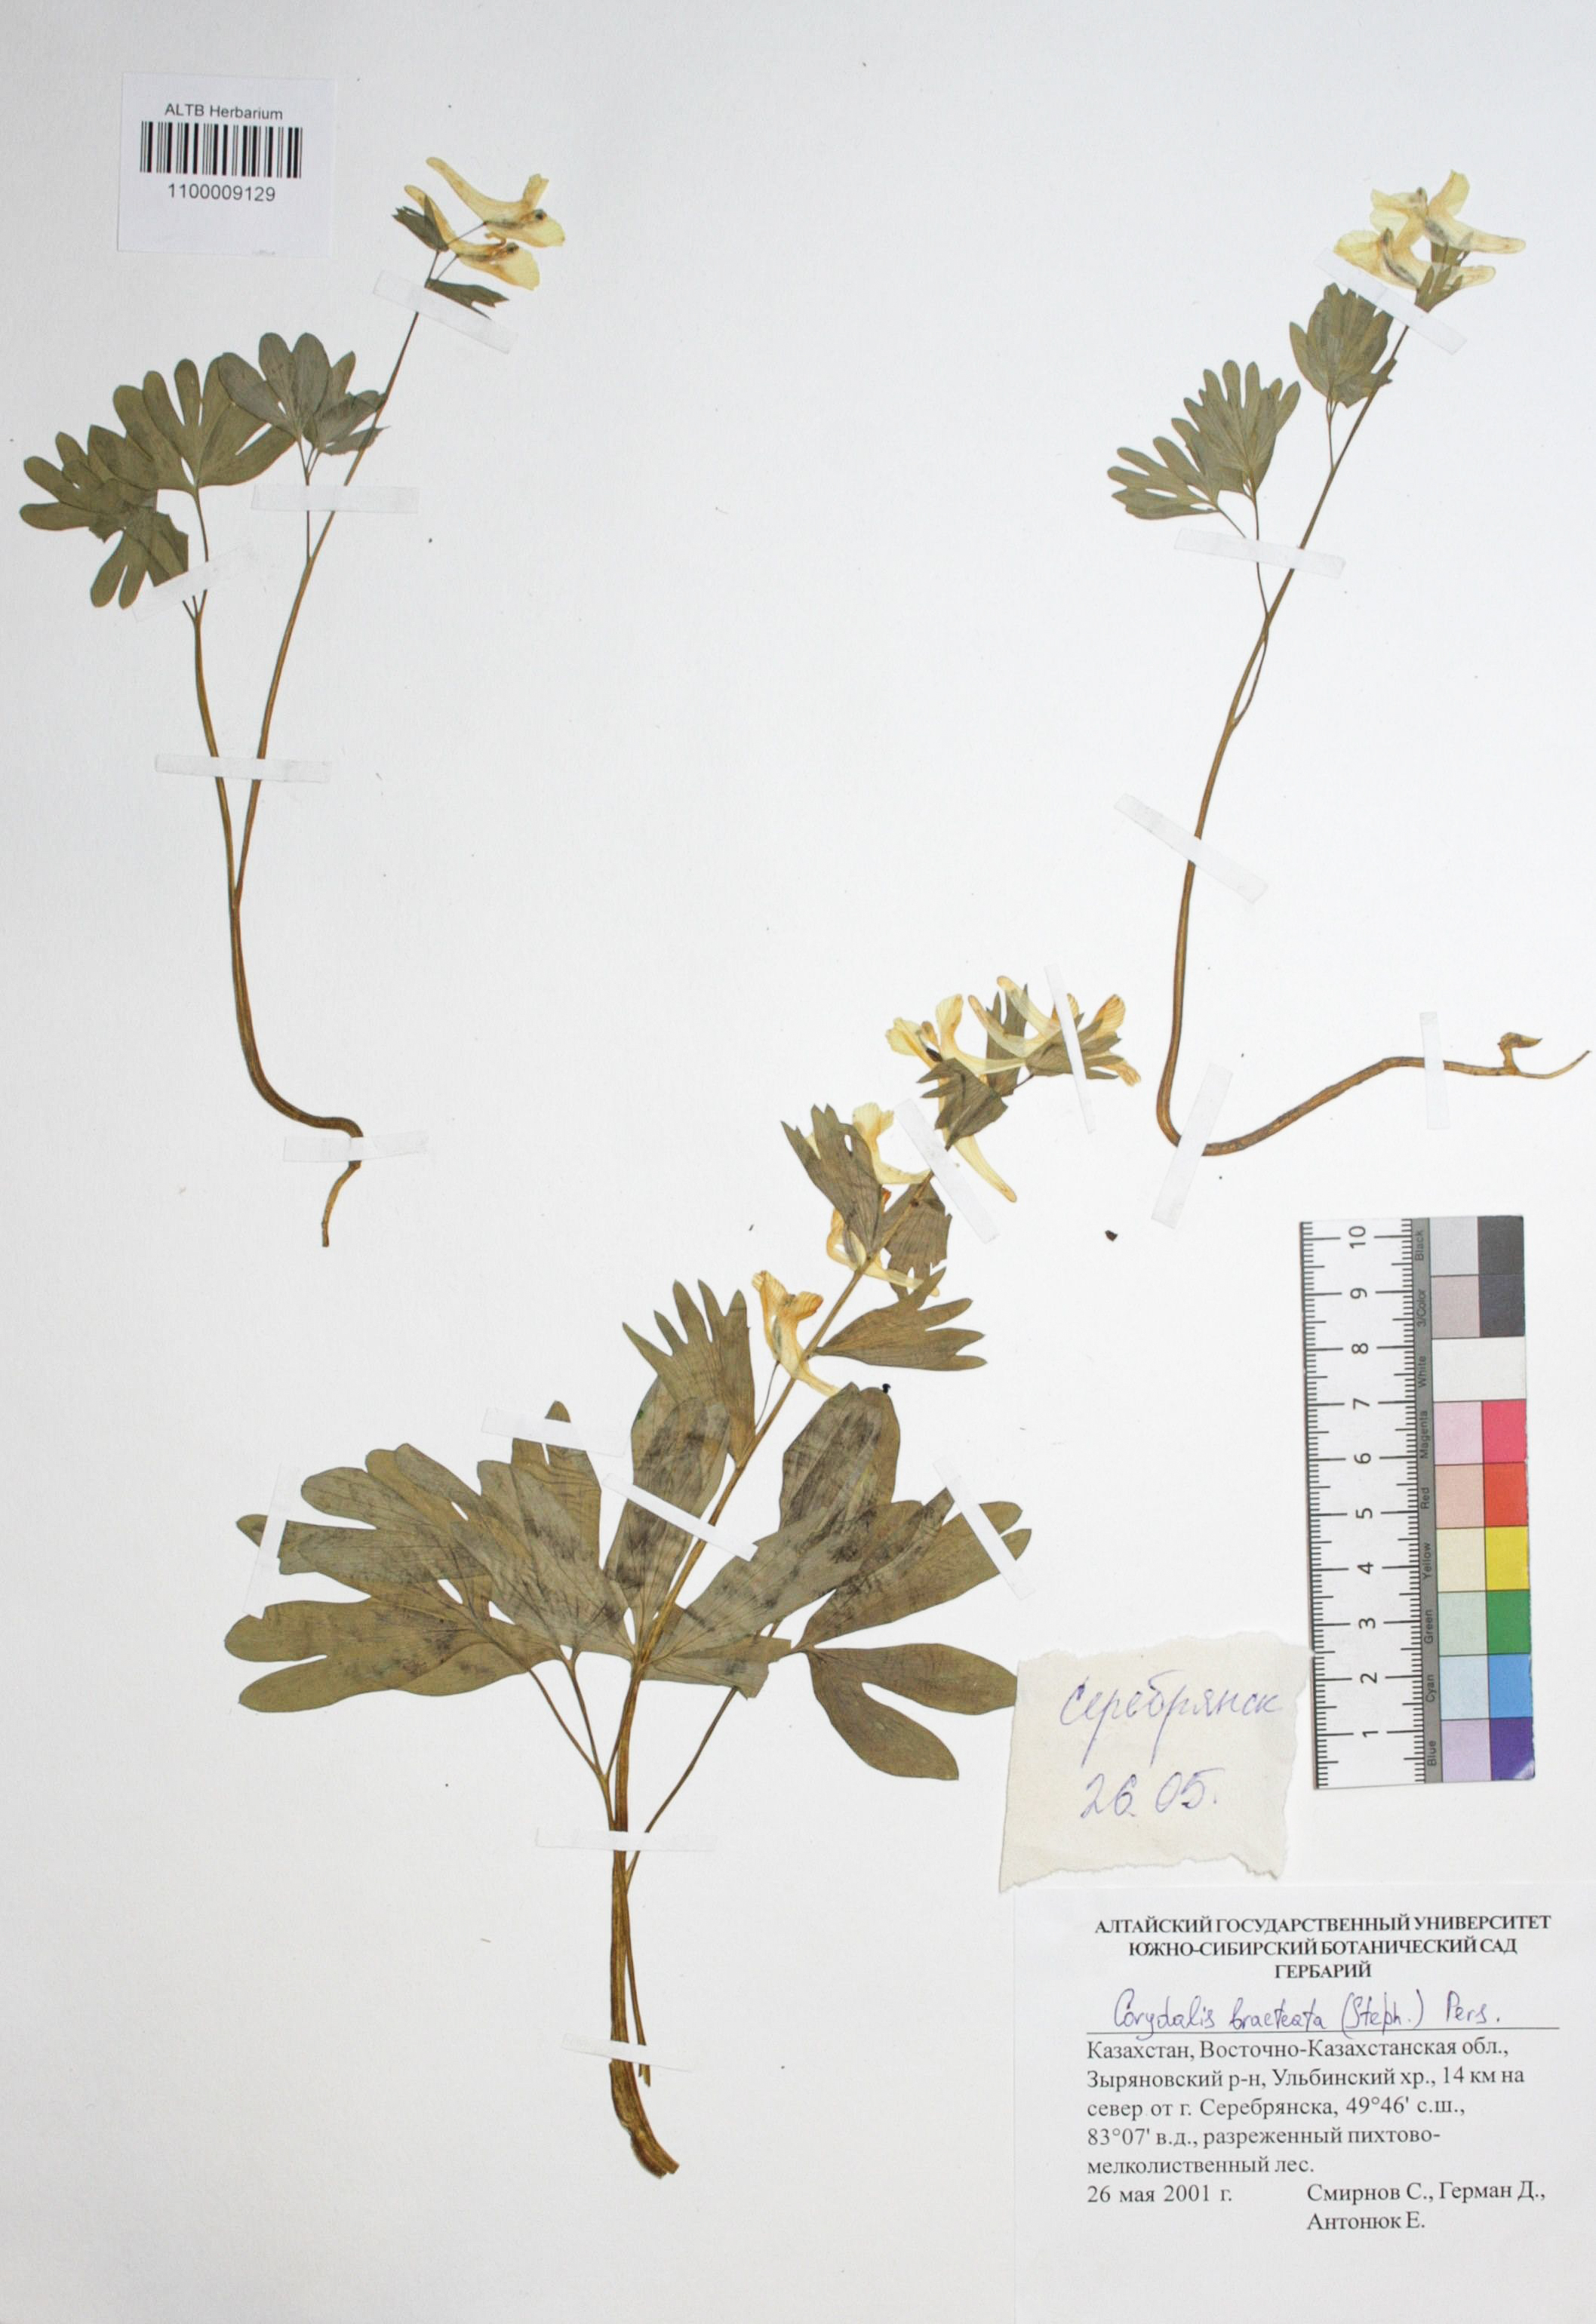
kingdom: Plantae
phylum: Tracheophyta
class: Magnoliopsida
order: Ranunculales
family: Papaveraceae
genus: Corydalis
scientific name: Corydalis bracteata
